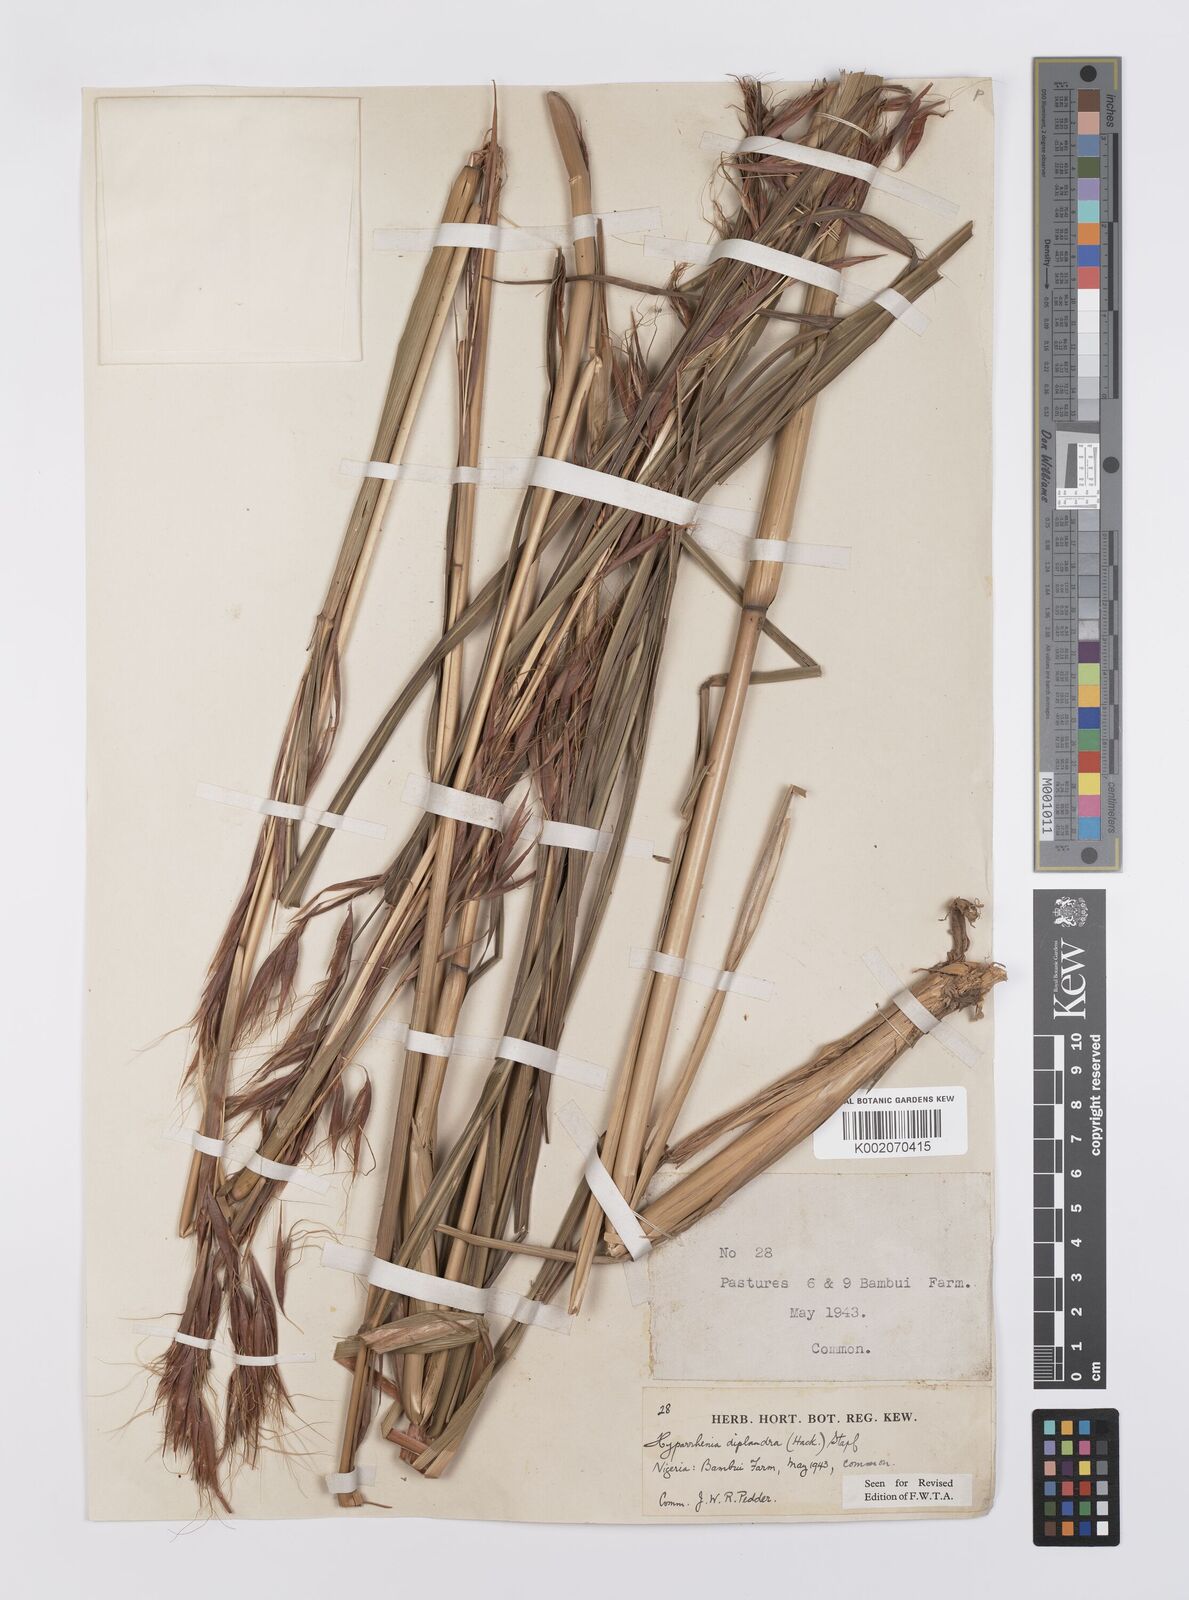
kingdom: Plantae
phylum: Tracheophyta
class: Liliopsida
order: Poales
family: Poaceae
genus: Hyparrhenia
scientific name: Hyparrhenia diplandra
